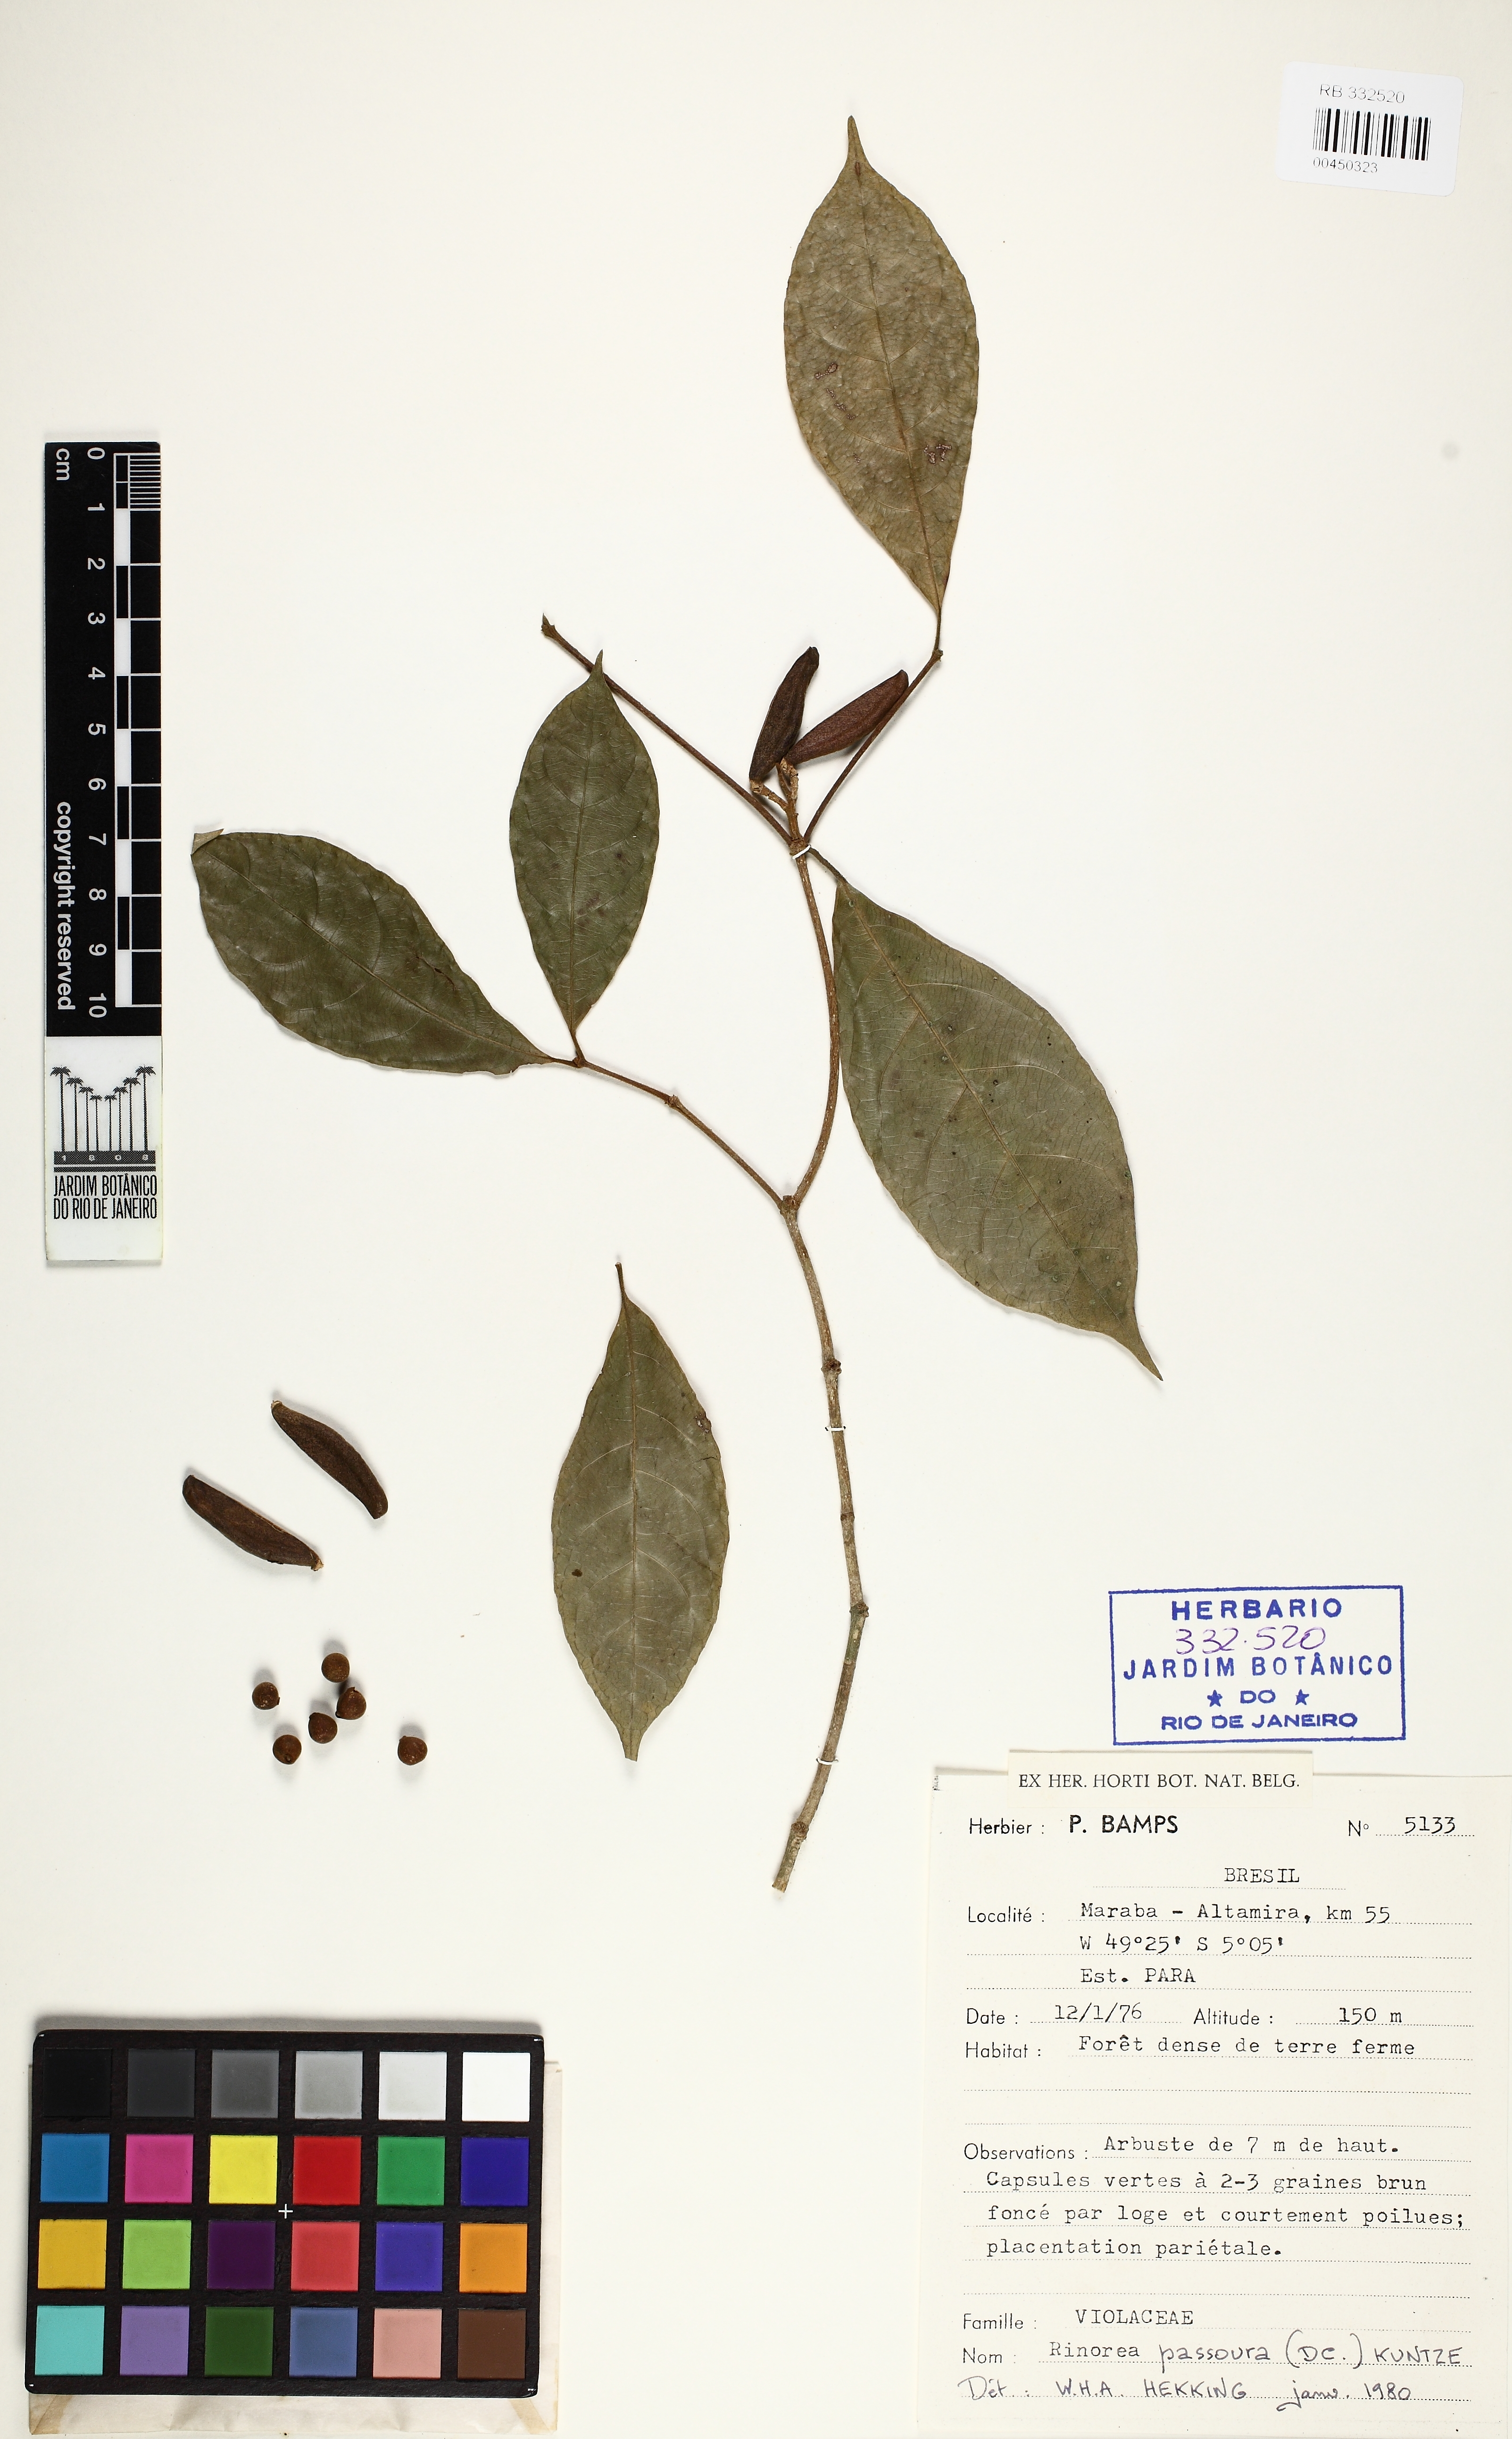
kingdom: Plantae
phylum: Tracheophyta
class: Magnoliopsida
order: Malpighiales
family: Violaceae
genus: Rinorea
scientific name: Rinorea pubiflora
